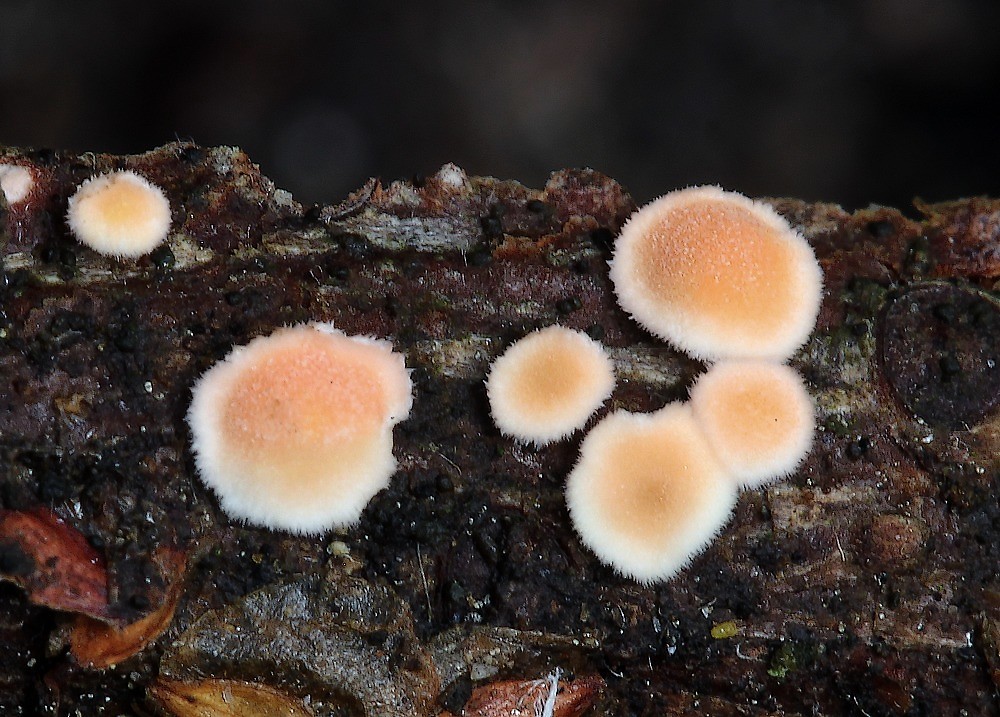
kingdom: Fungi
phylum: Basidiomycota
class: Agaricomycetes
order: Russulales
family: Stereaceae
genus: Aleurodiscus
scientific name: Aleurodiscus amorphus
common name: orange skiveskorpe
